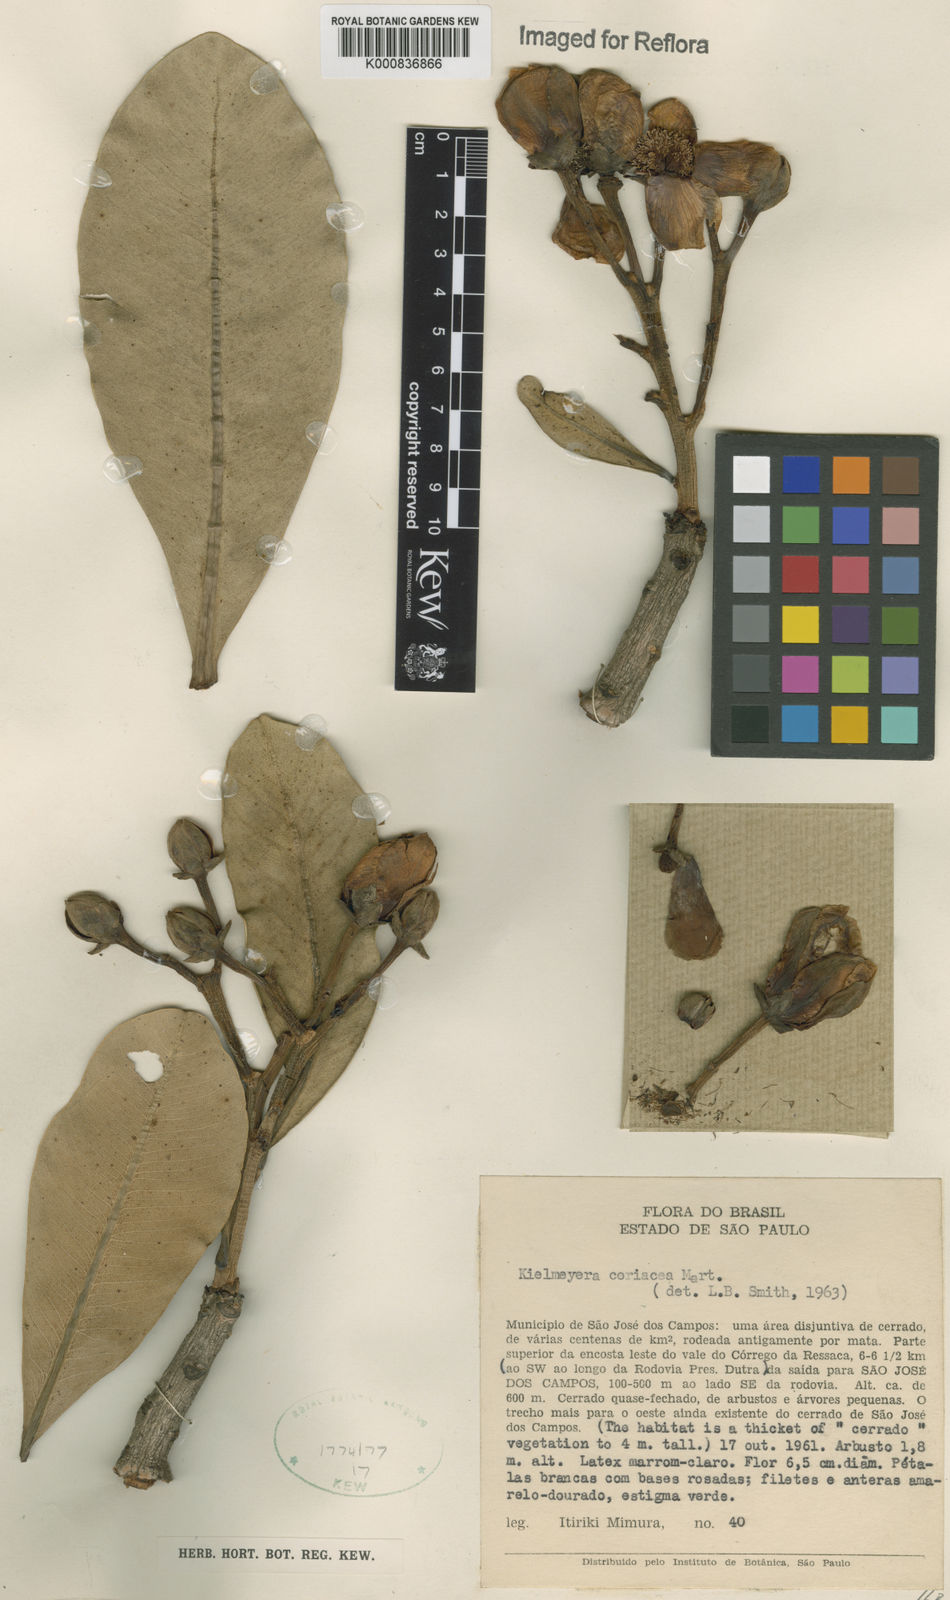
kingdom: Plantae
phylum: Tracheophyta
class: Magnoliopsida
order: Malpighiales
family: Calophyllaceae
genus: Kielmeyera
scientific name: Kielmeyera coriacea
